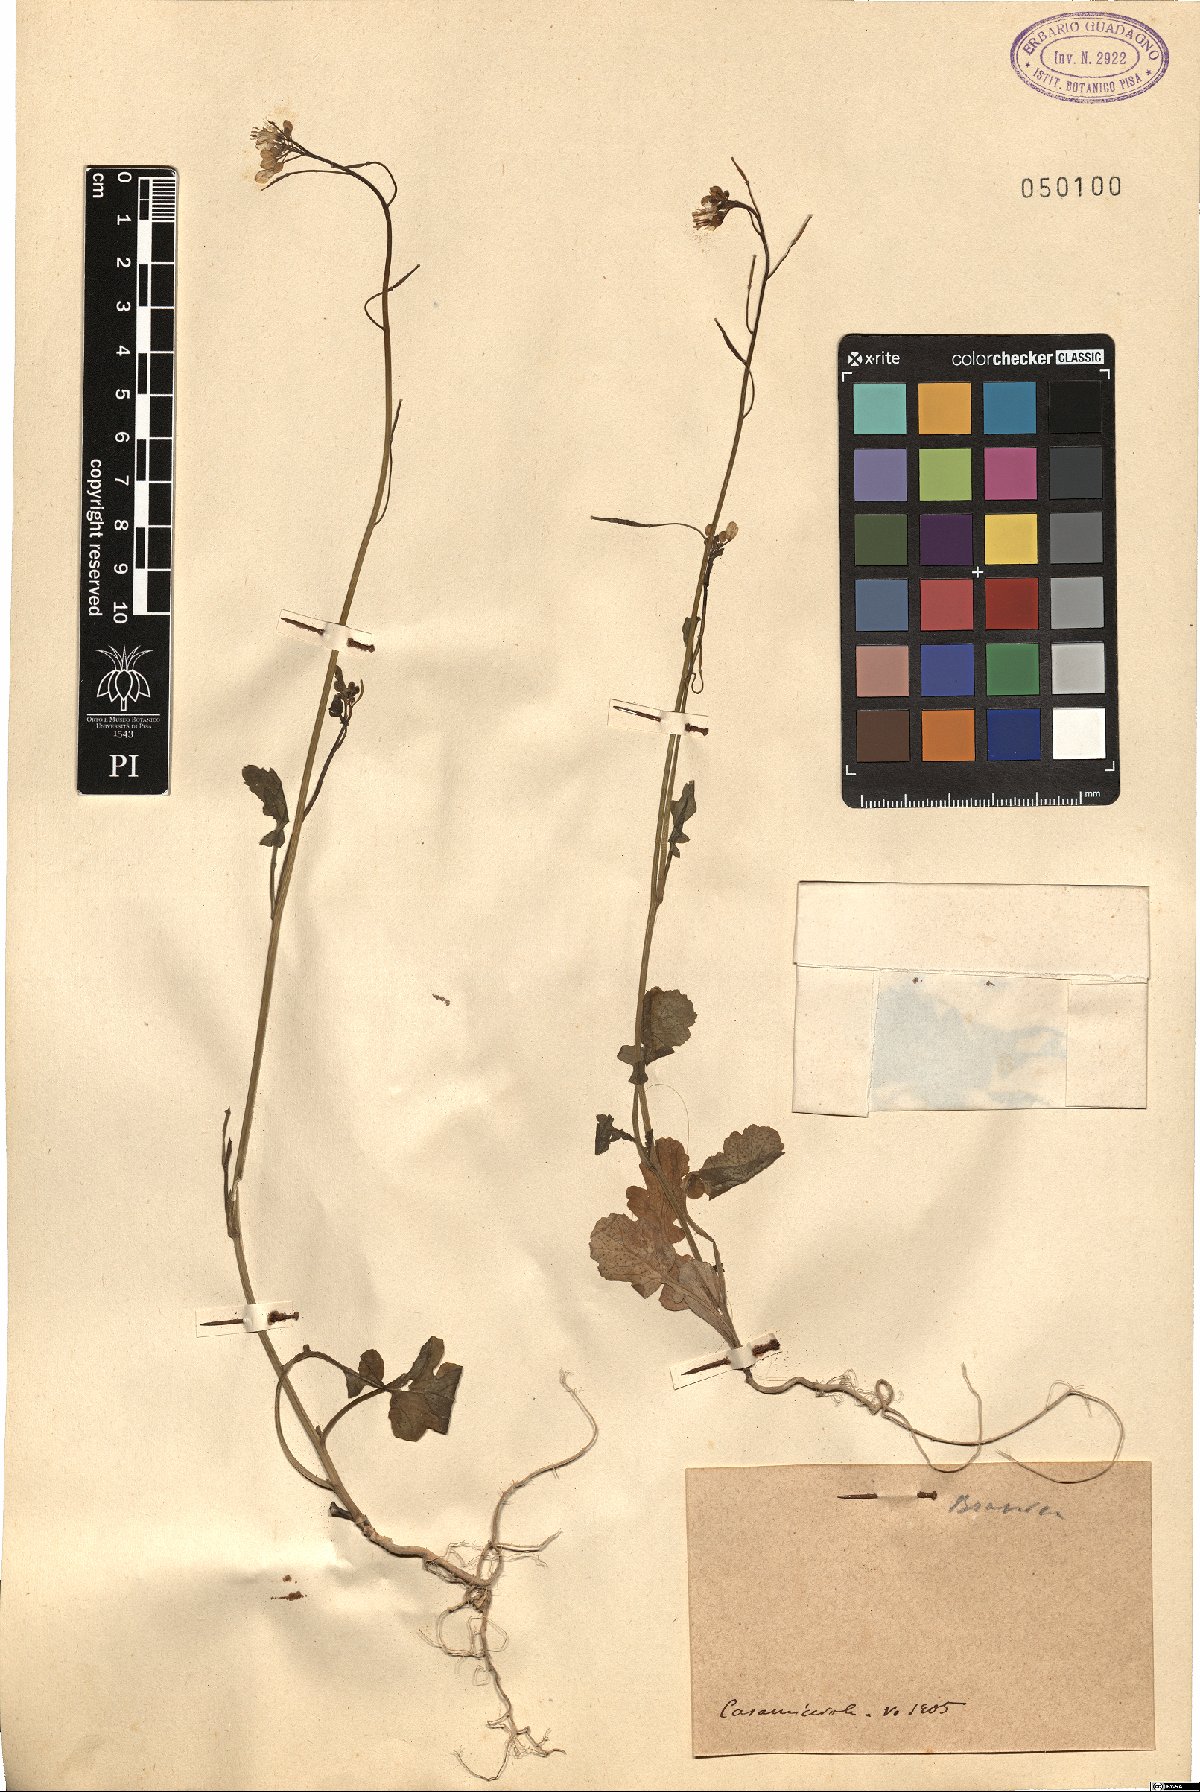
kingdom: Plantae
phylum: Tracheophyta
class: Magnoliopsida
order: Brassicales
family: Brassicaceae
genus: Brassica
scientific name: Brassica
